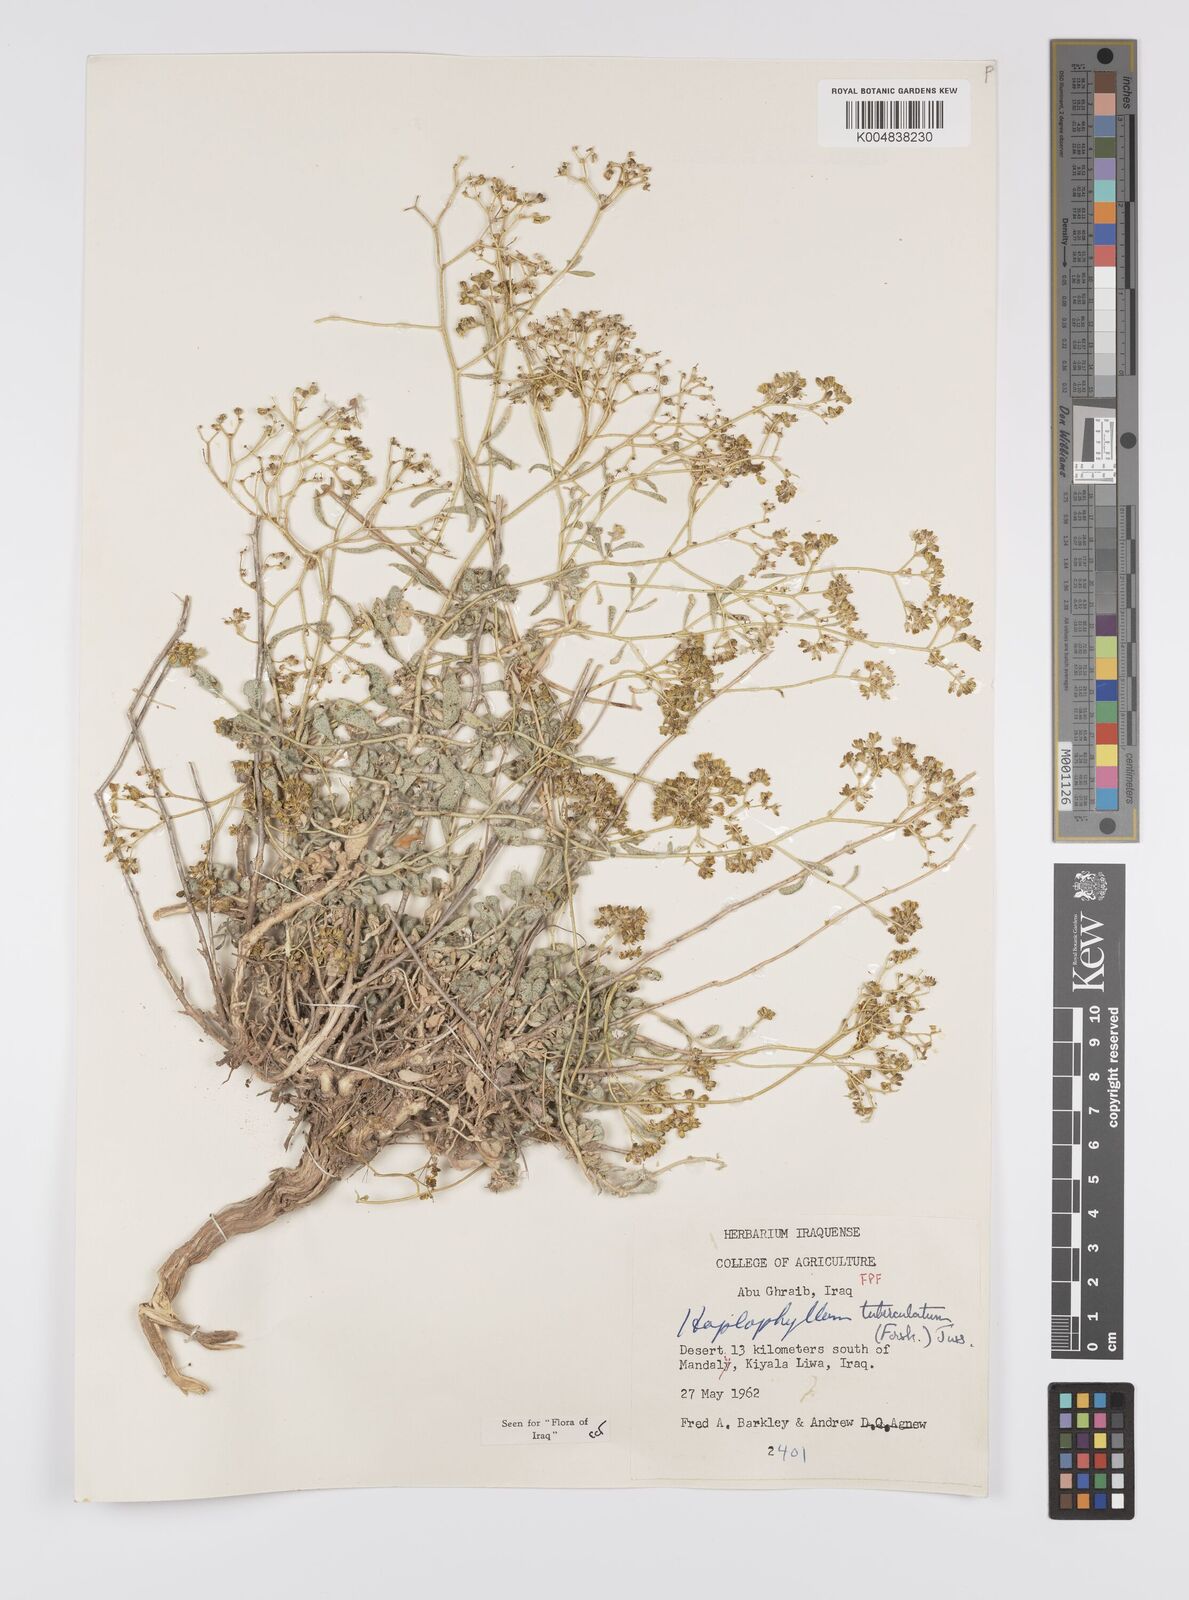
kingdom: Plantae
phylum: Tracheophyta
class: Magnoliopsida
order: Sapindales
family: Rutaceae
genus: Haplophyllum
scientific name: Haplophyllum tuberculatum
